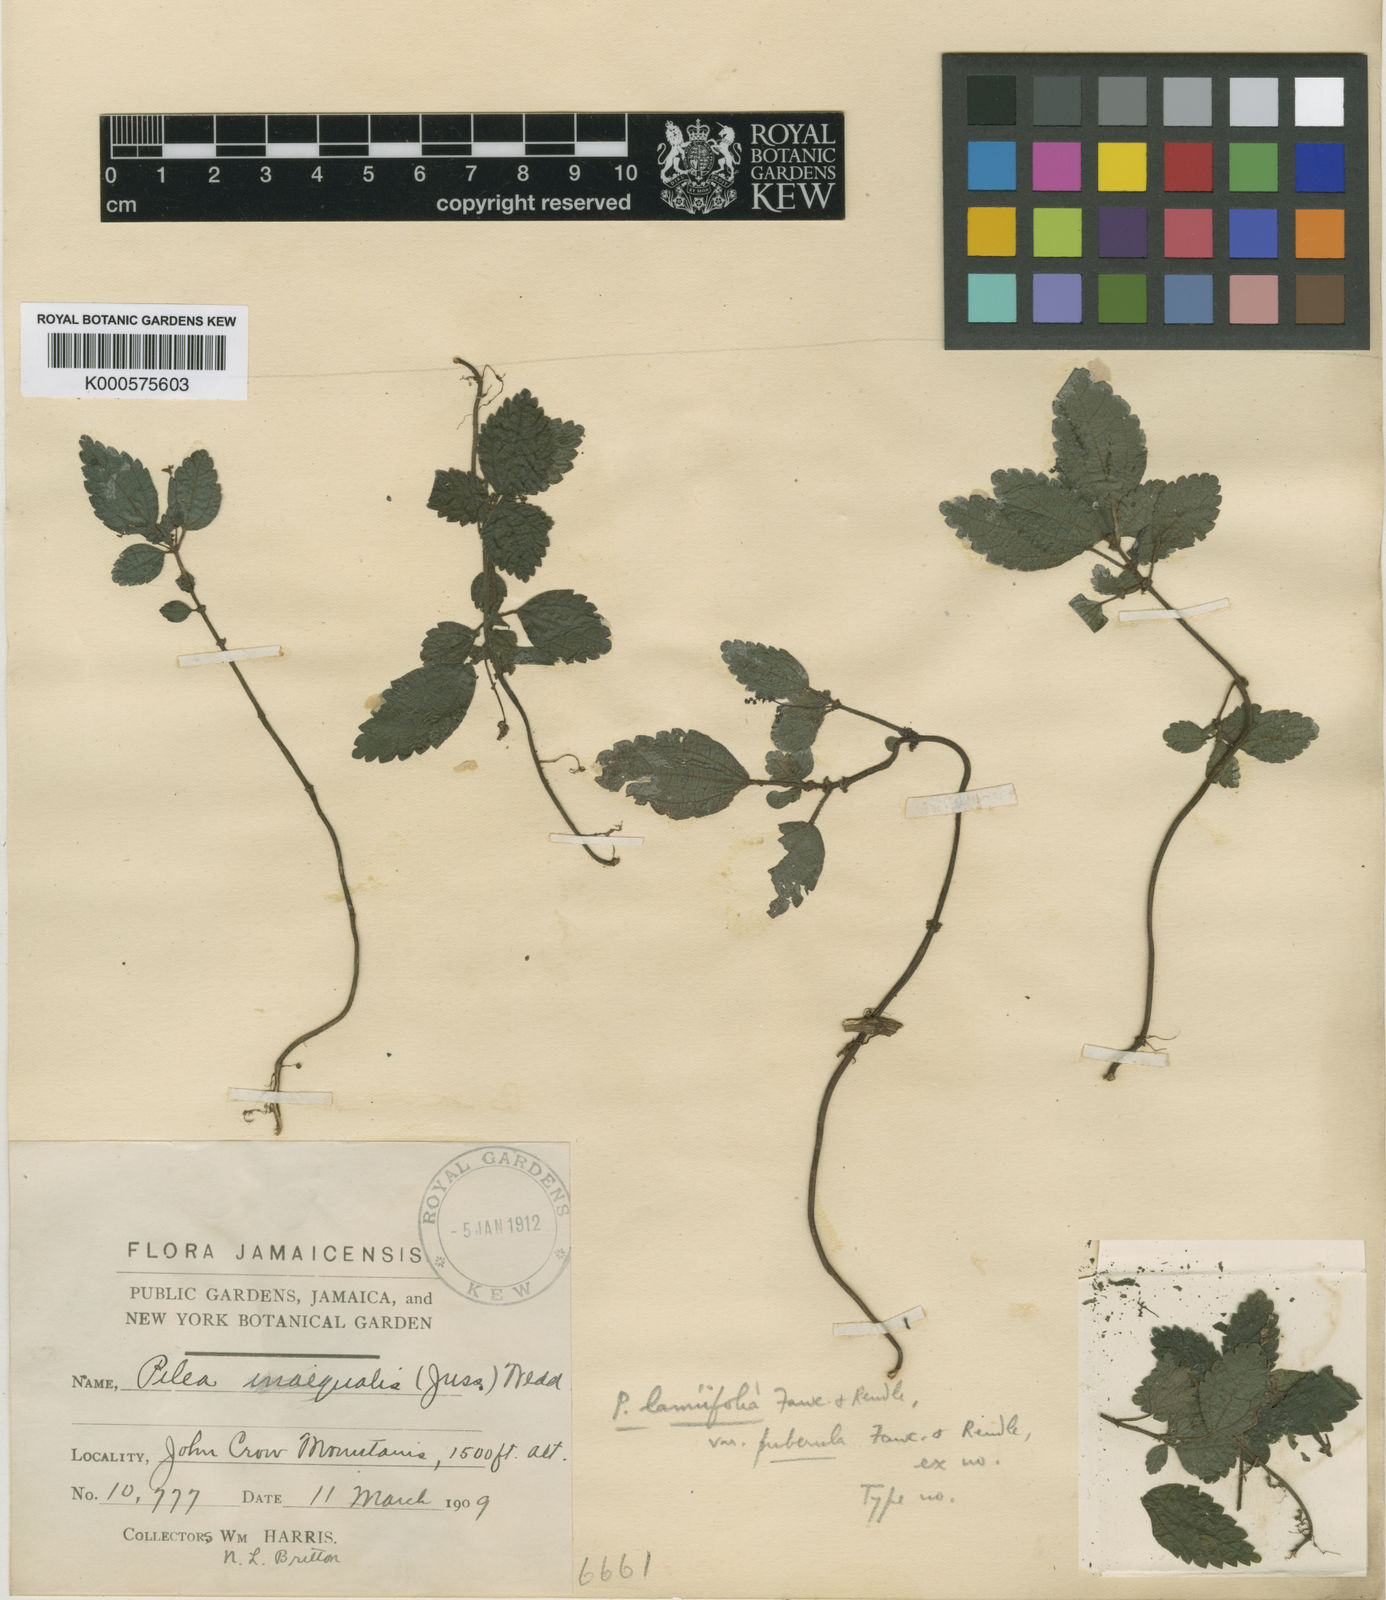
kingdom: Plantae
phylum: Tracheophyta
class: Magnoliopsida
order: Rosales
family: Urticaceae
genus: Pilea
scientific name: Pilea lamiifolia
